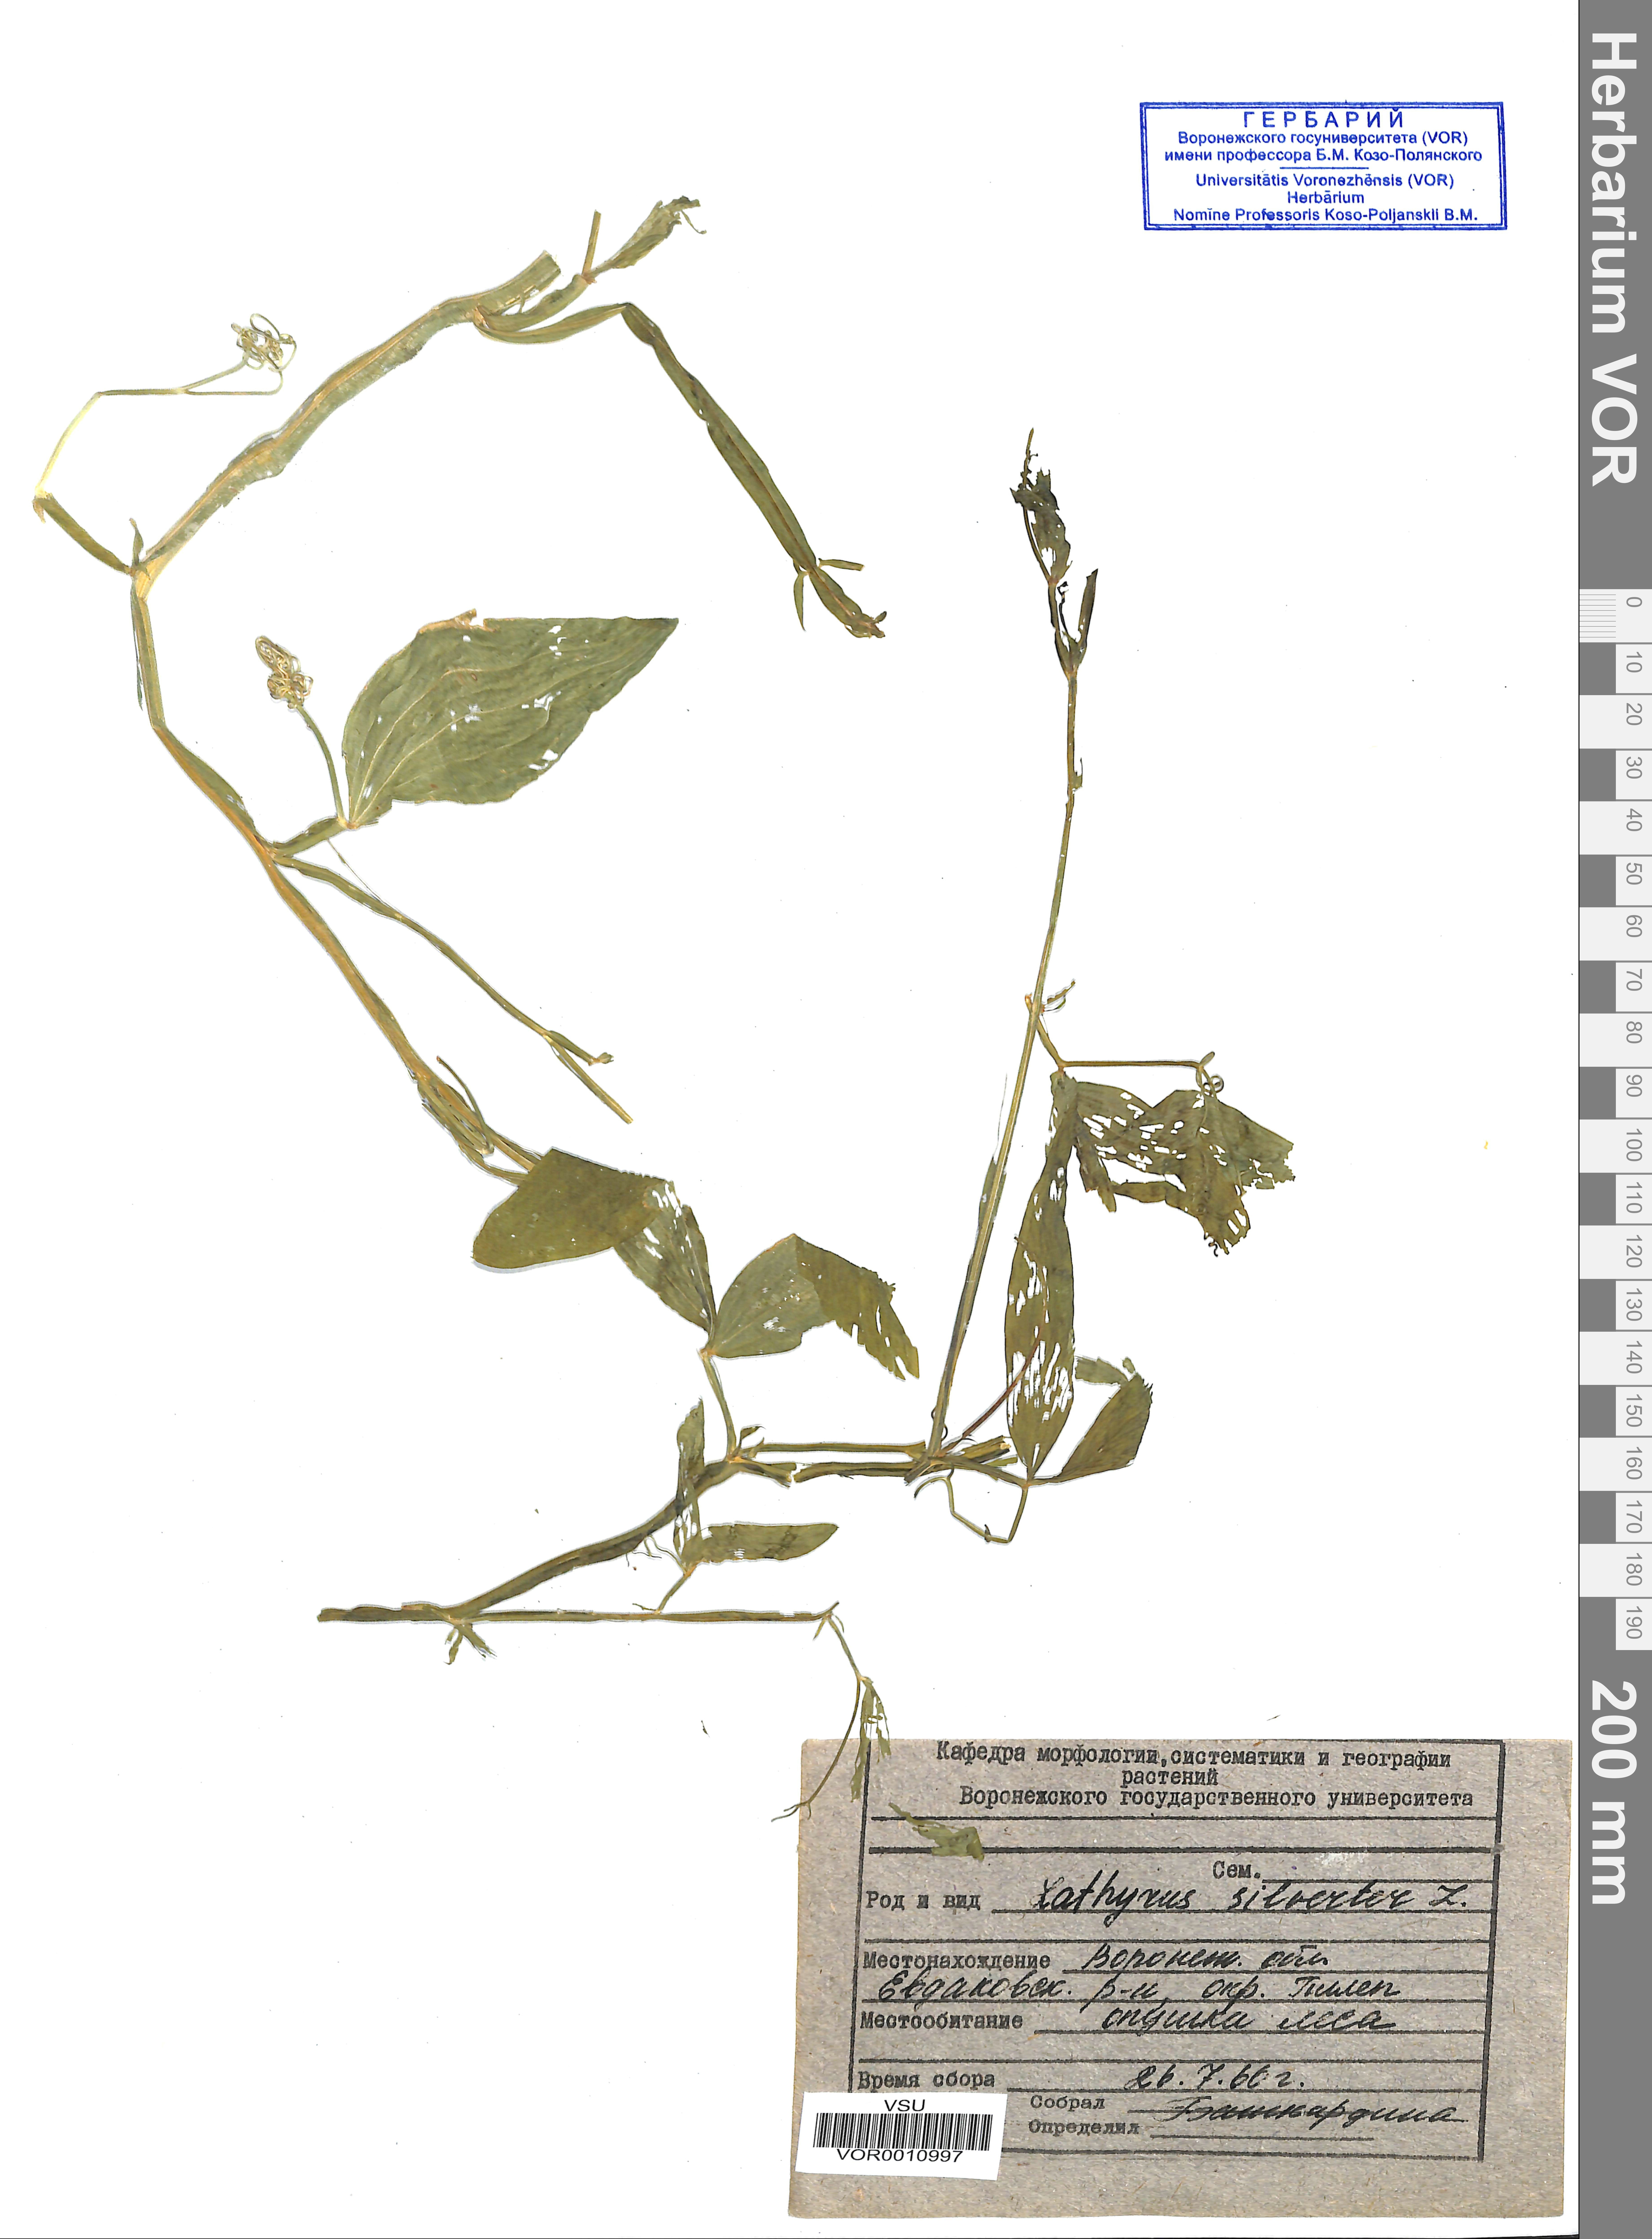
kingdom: Plantae
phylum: Tracheophyta
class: Magnoliopsida
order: Fabales
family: Fabaceae
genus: Lathyrus
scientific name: Lathyrus sylvestris
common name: Flat pea
